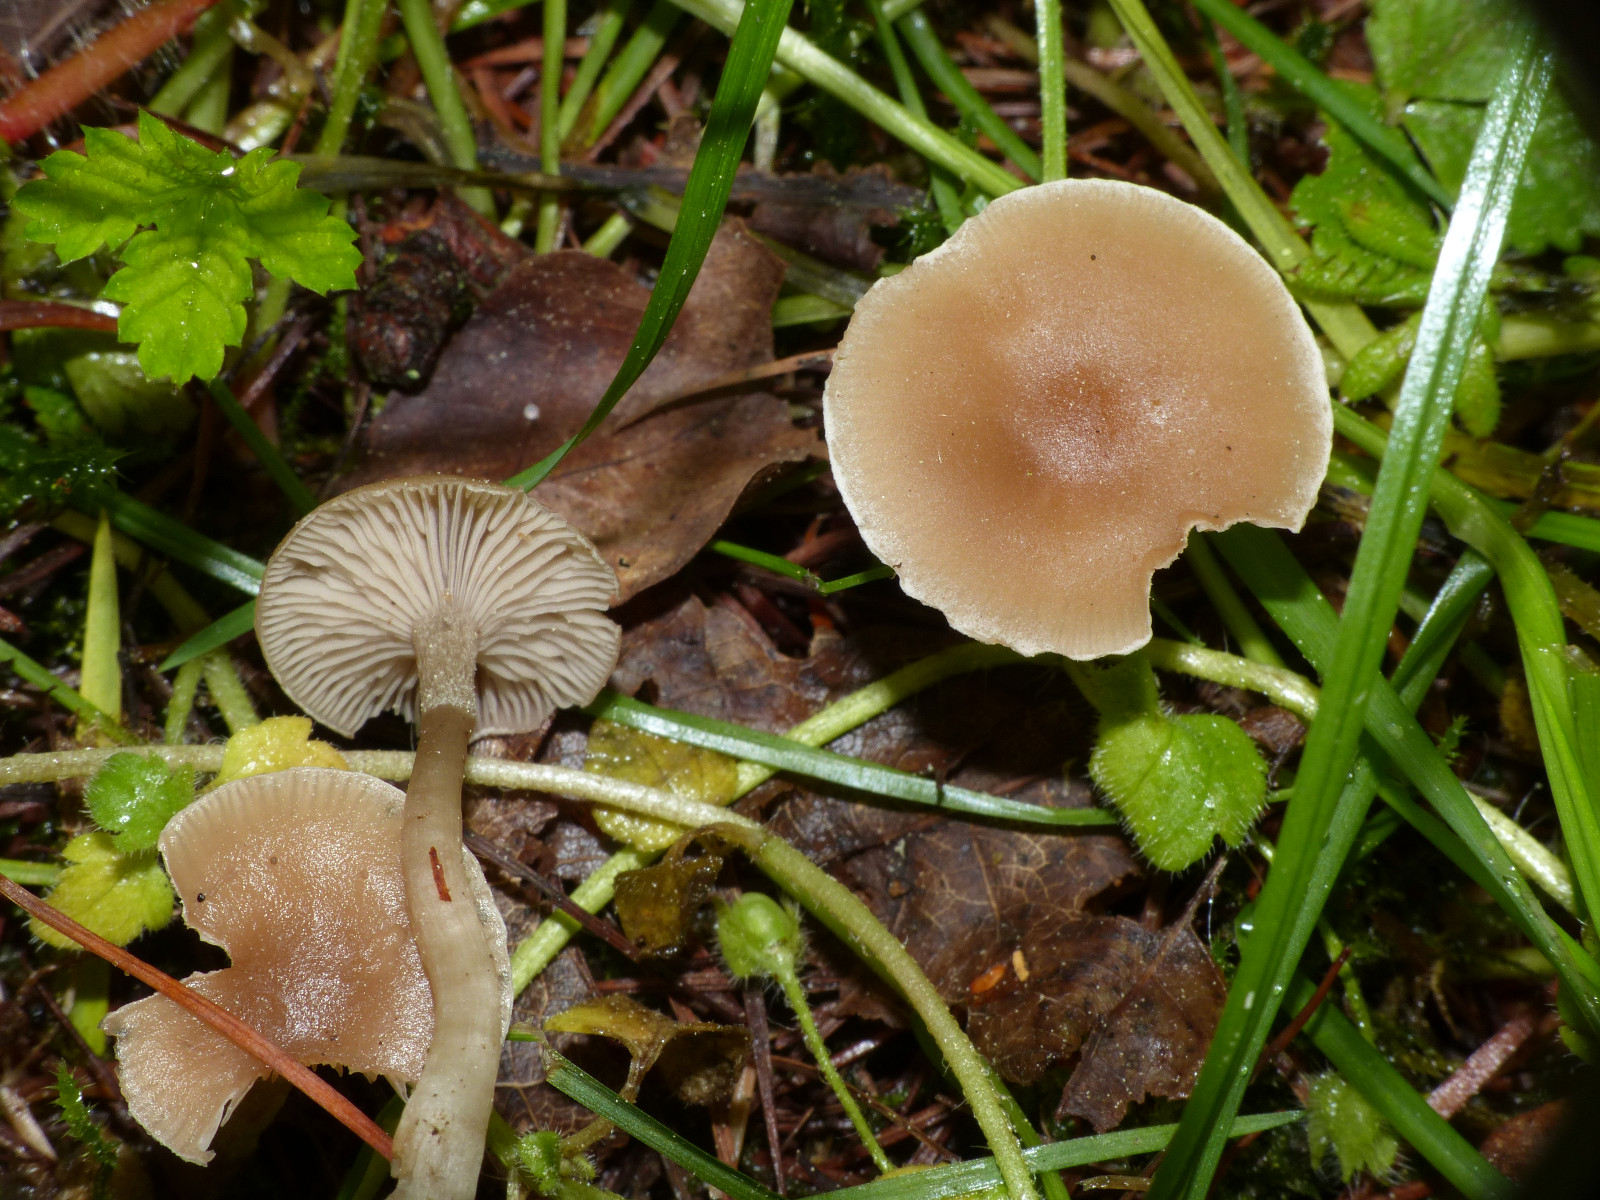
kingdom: Fungi
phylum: Basidiomycota
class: Agaricomycetes
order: Agaricales
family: Tricholomataceae
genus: Clitocybe
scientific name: Clitocybe fragrans
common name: vellugtende tragthat
